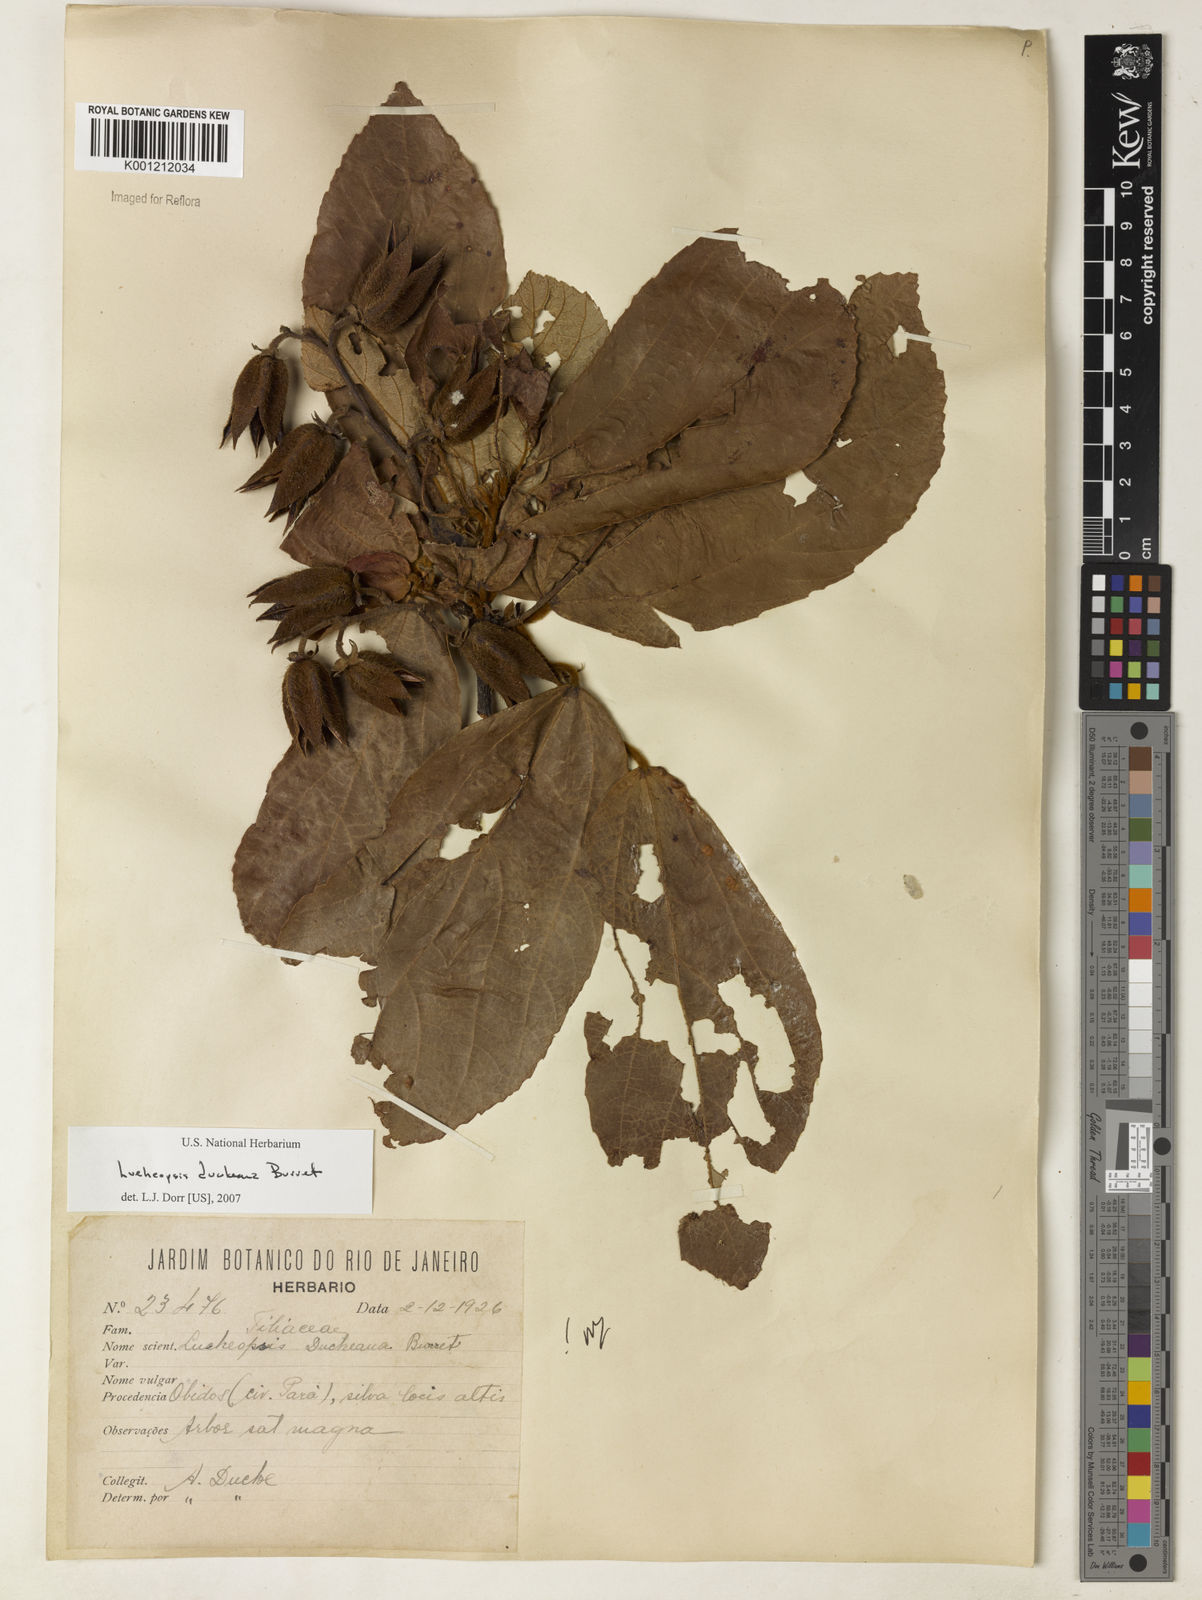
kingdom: Plantae
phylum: Tracheophyta
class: Magnoliopsida
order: Malvales
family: Malvaceae
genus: Lueheopsis
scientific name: Lueheopsis duckeana
